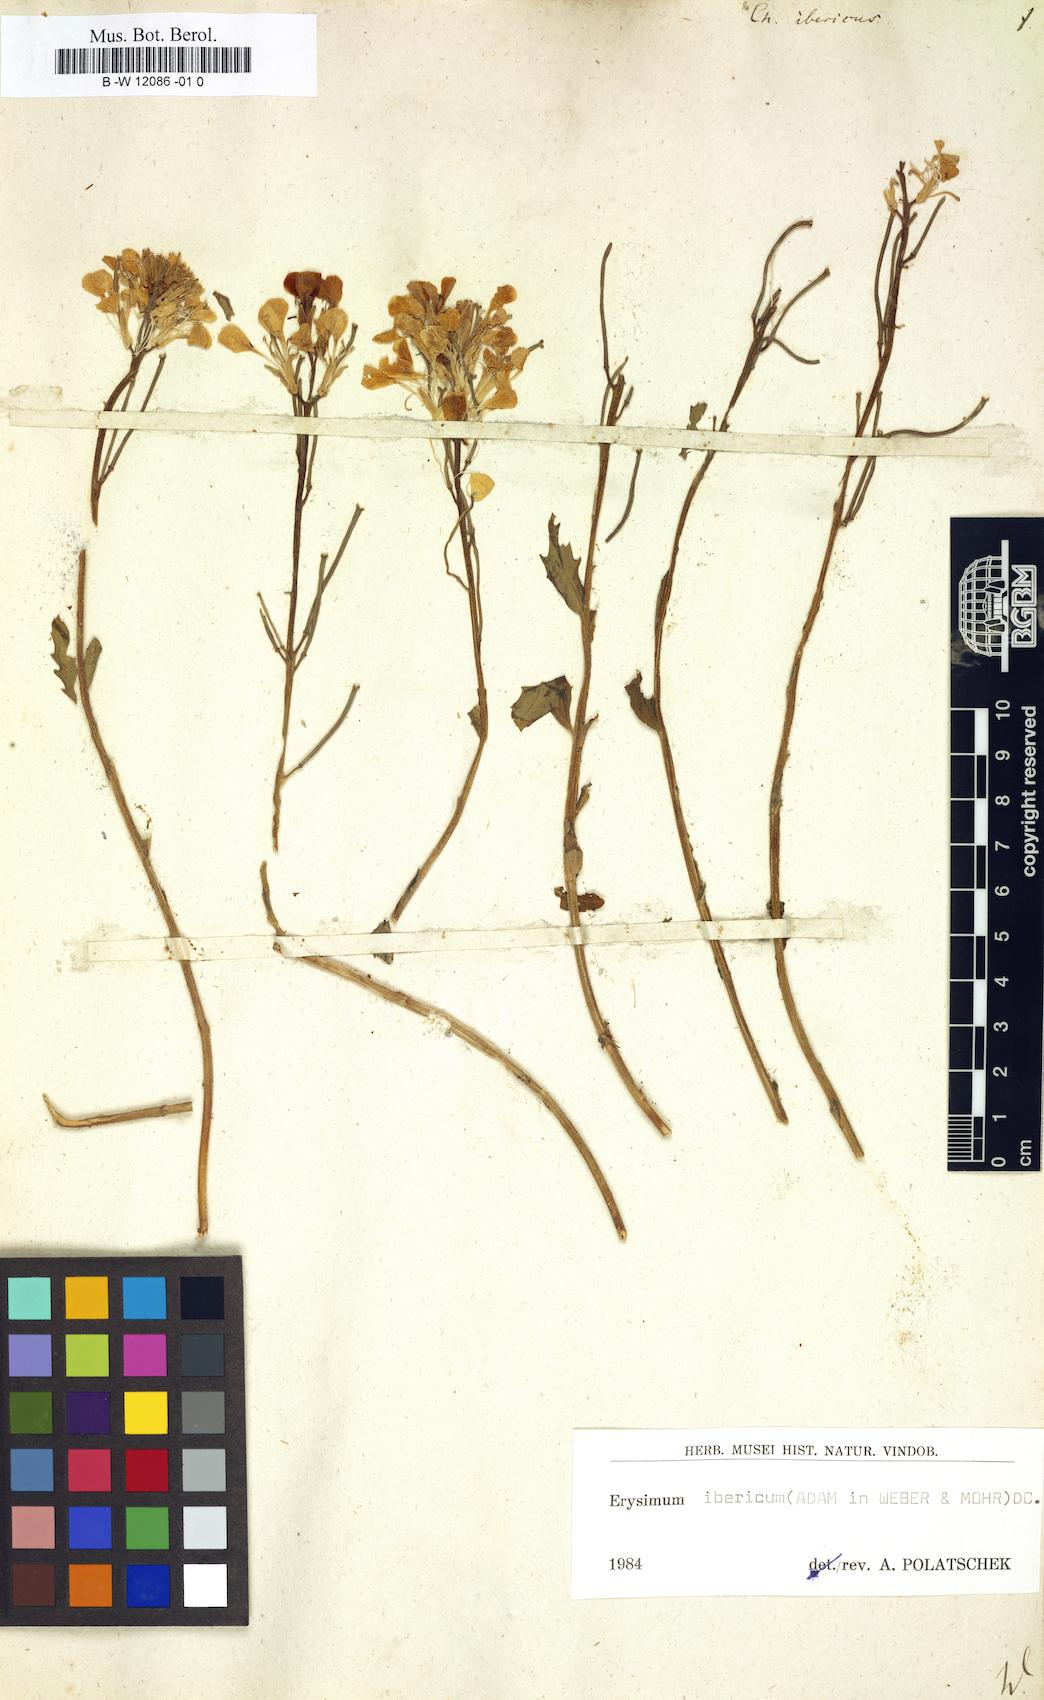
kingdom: Plantae
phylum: Tracheophyta
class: Magnoliopsida
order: Brassicales
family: Brassicaceae
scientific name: Brassicaceae
